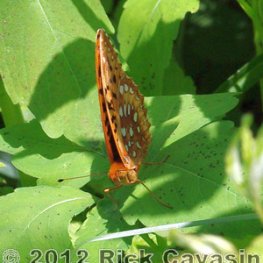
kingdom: Animalia
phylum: Arthropoda
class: Insecta
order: Lepidoptera
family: Nymphalidae
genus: Speyeria
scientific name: Speyeria cybele
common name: Great Spangled Fritillary
